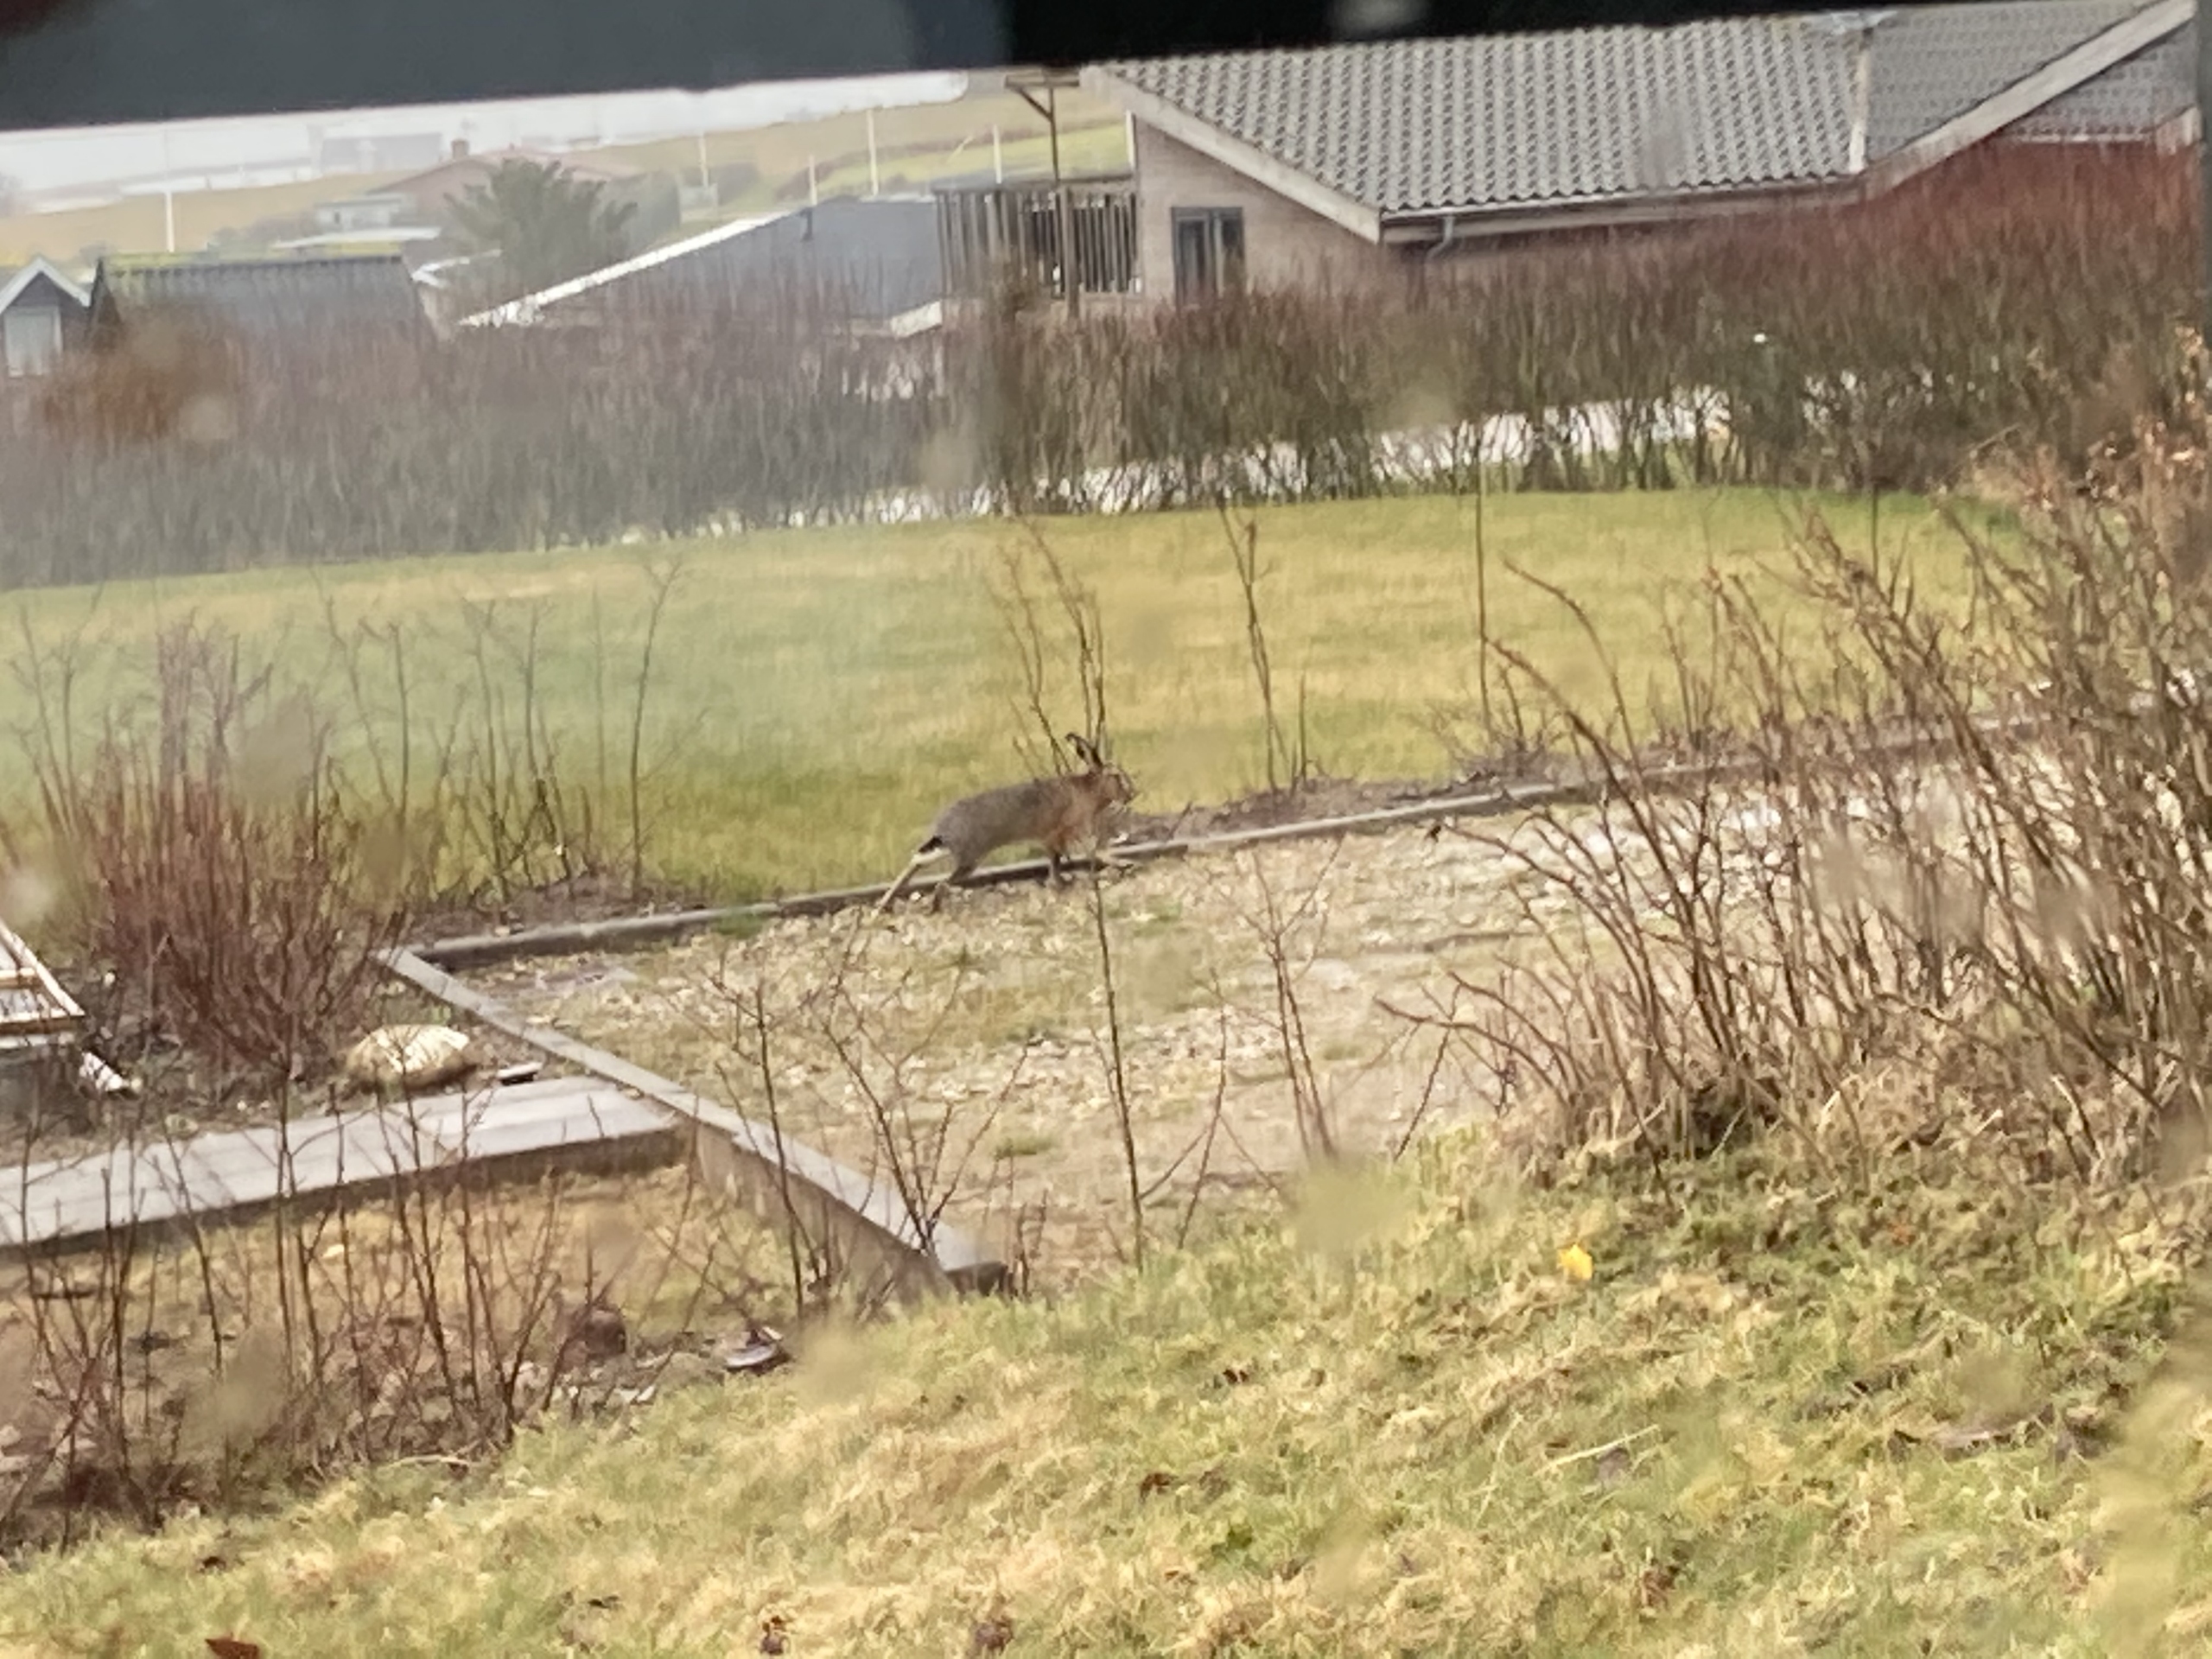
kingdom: Animalia
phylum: Chordata
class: Mammalia
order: Lagomorpha
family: Leporidae
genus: Lepus
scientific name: Lepus europaeus
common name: Hare
